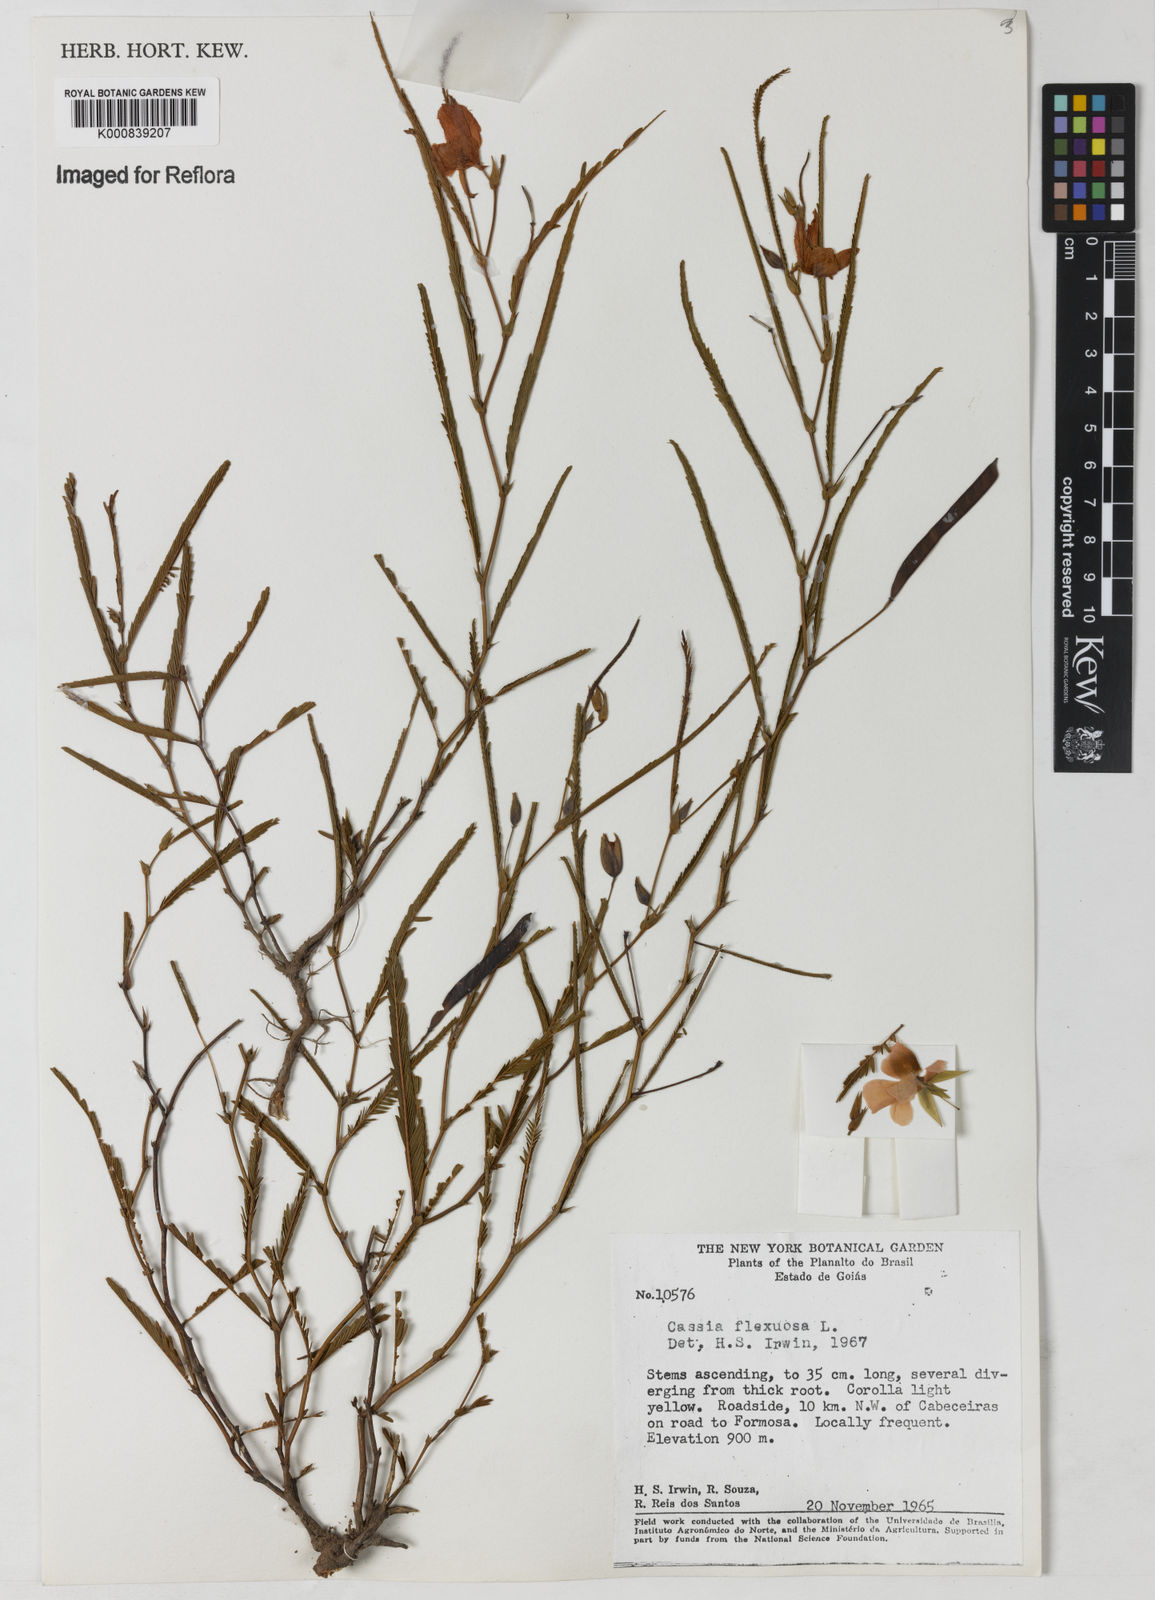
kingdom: Plantae
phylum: Tracheophyta
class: Magnoliopsida
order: Fabales
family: Fabaceae
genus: Chamaecrista
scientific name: Chamaecrista flexuosa
